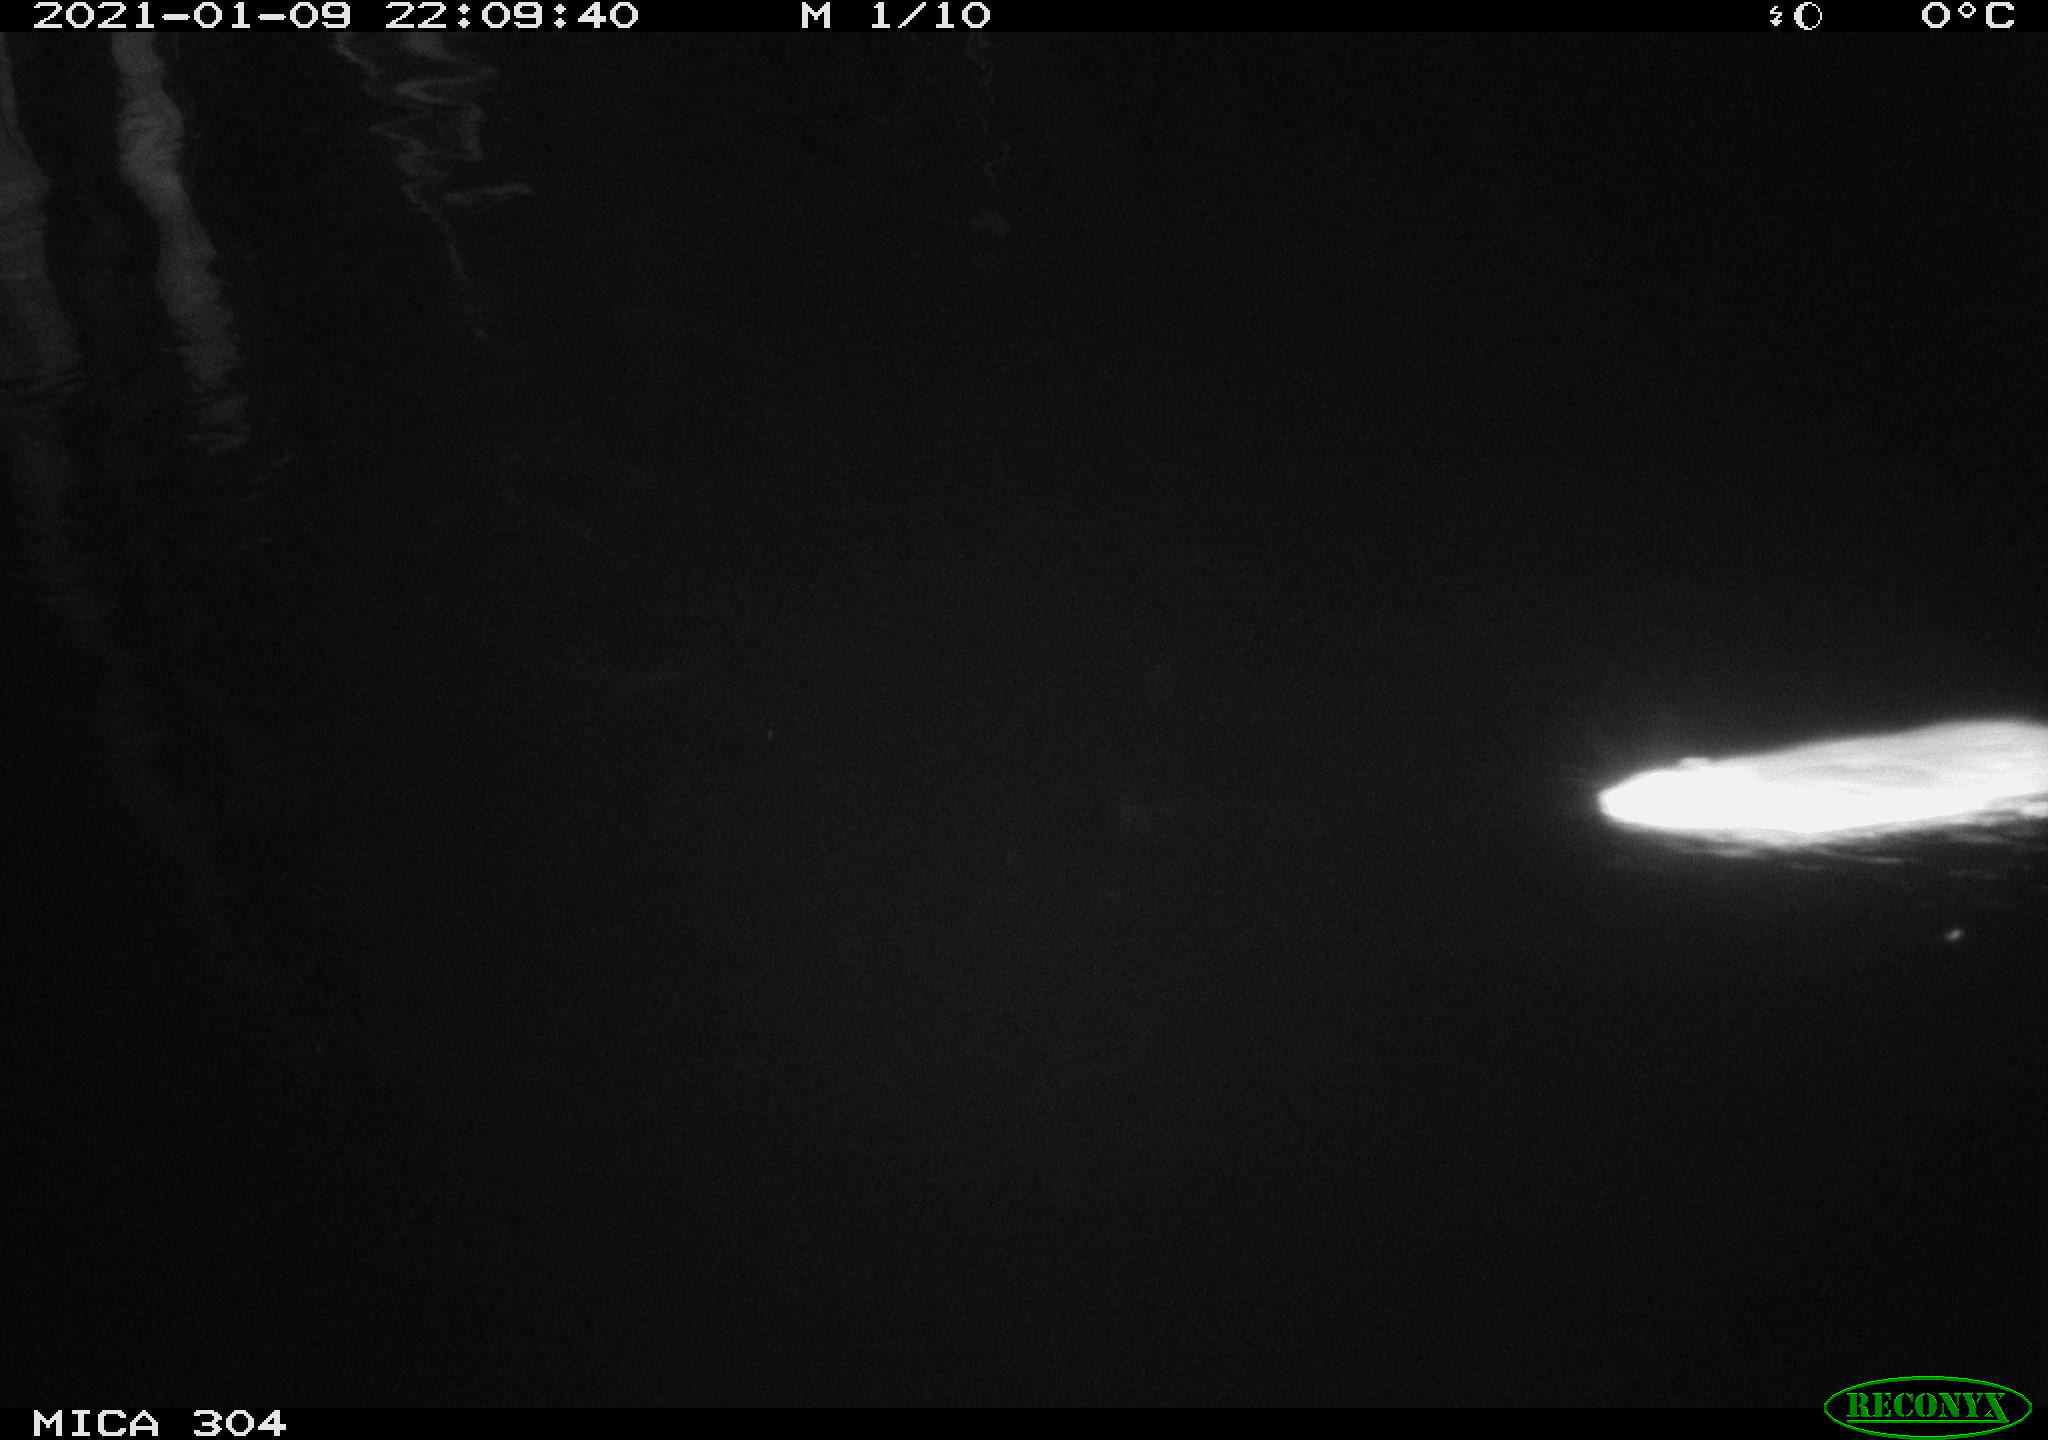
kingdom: Animalia
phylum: Chordata
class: Mammalia
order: Rodentia
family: Muridae
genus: Rattus
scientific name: Rattus norvegicus
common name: Brown rat
